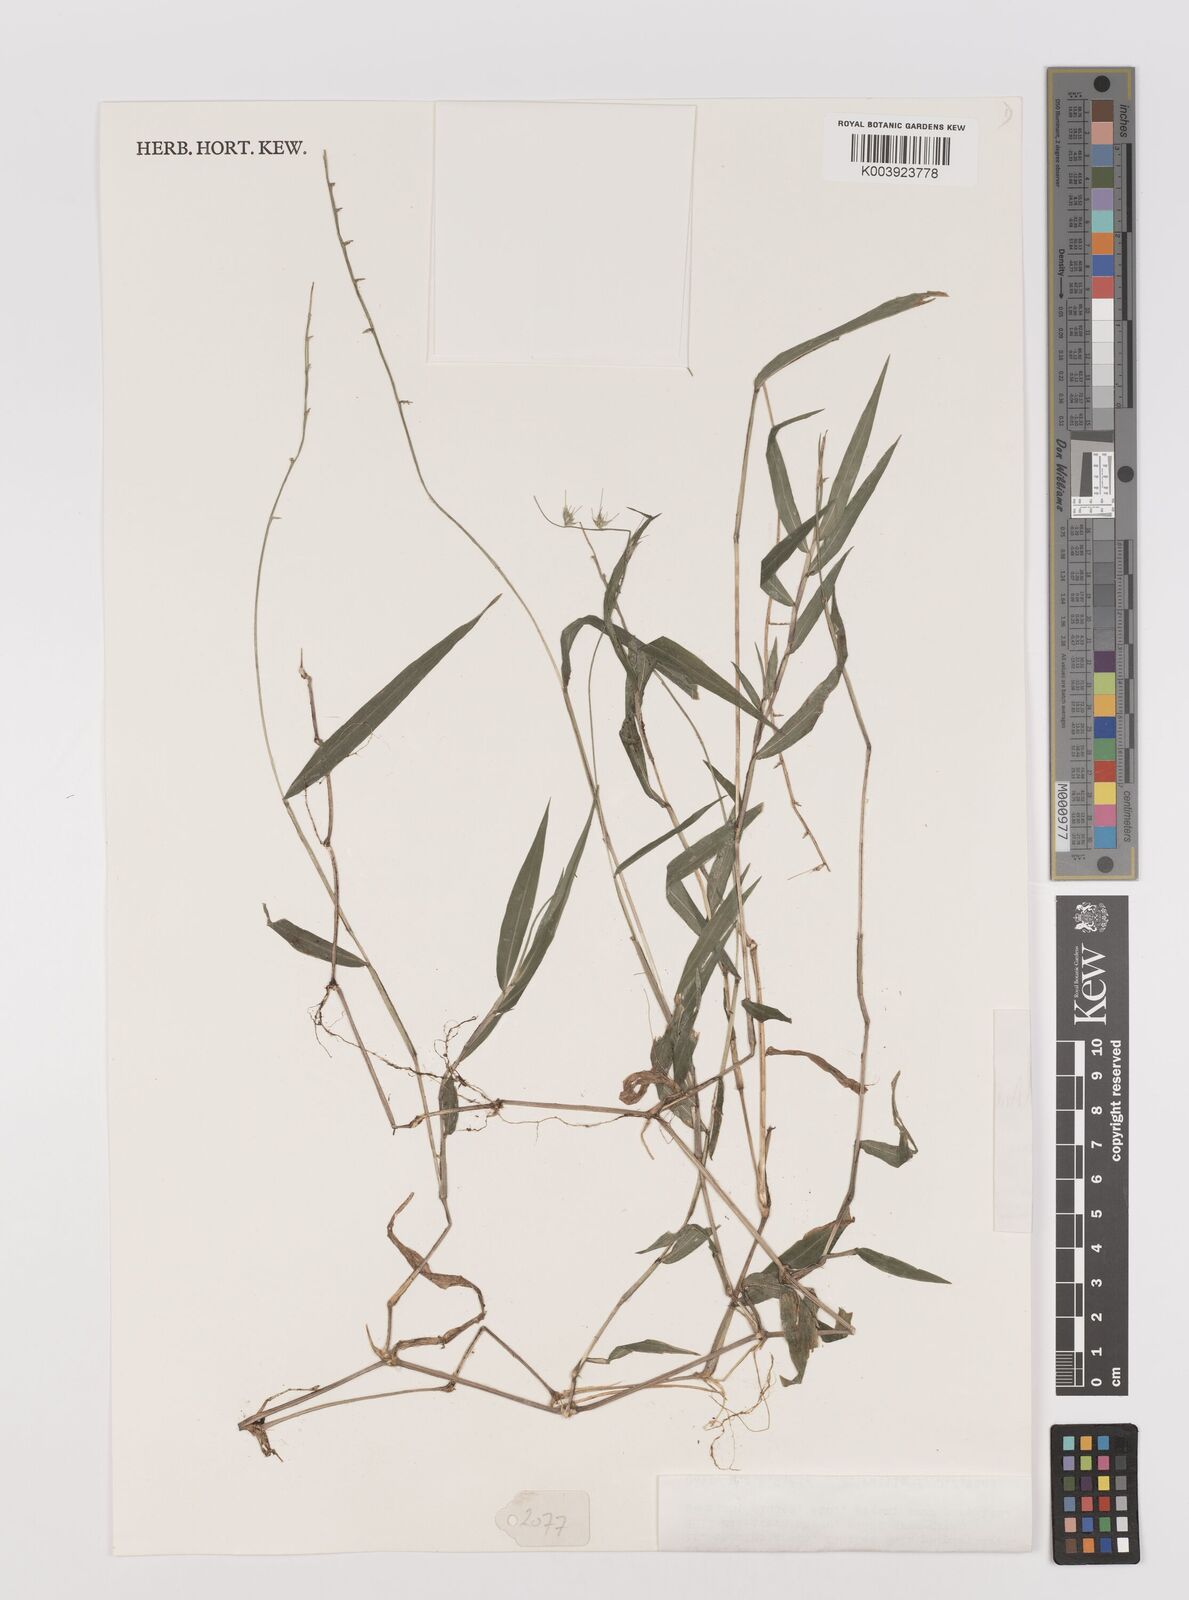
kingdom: Plantae
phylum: Tracheophyta
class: Liliopsida
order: Poales
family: Poaceae
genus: Oplismenus
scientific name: Oplismenus hirtellus
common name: Basketgrass
